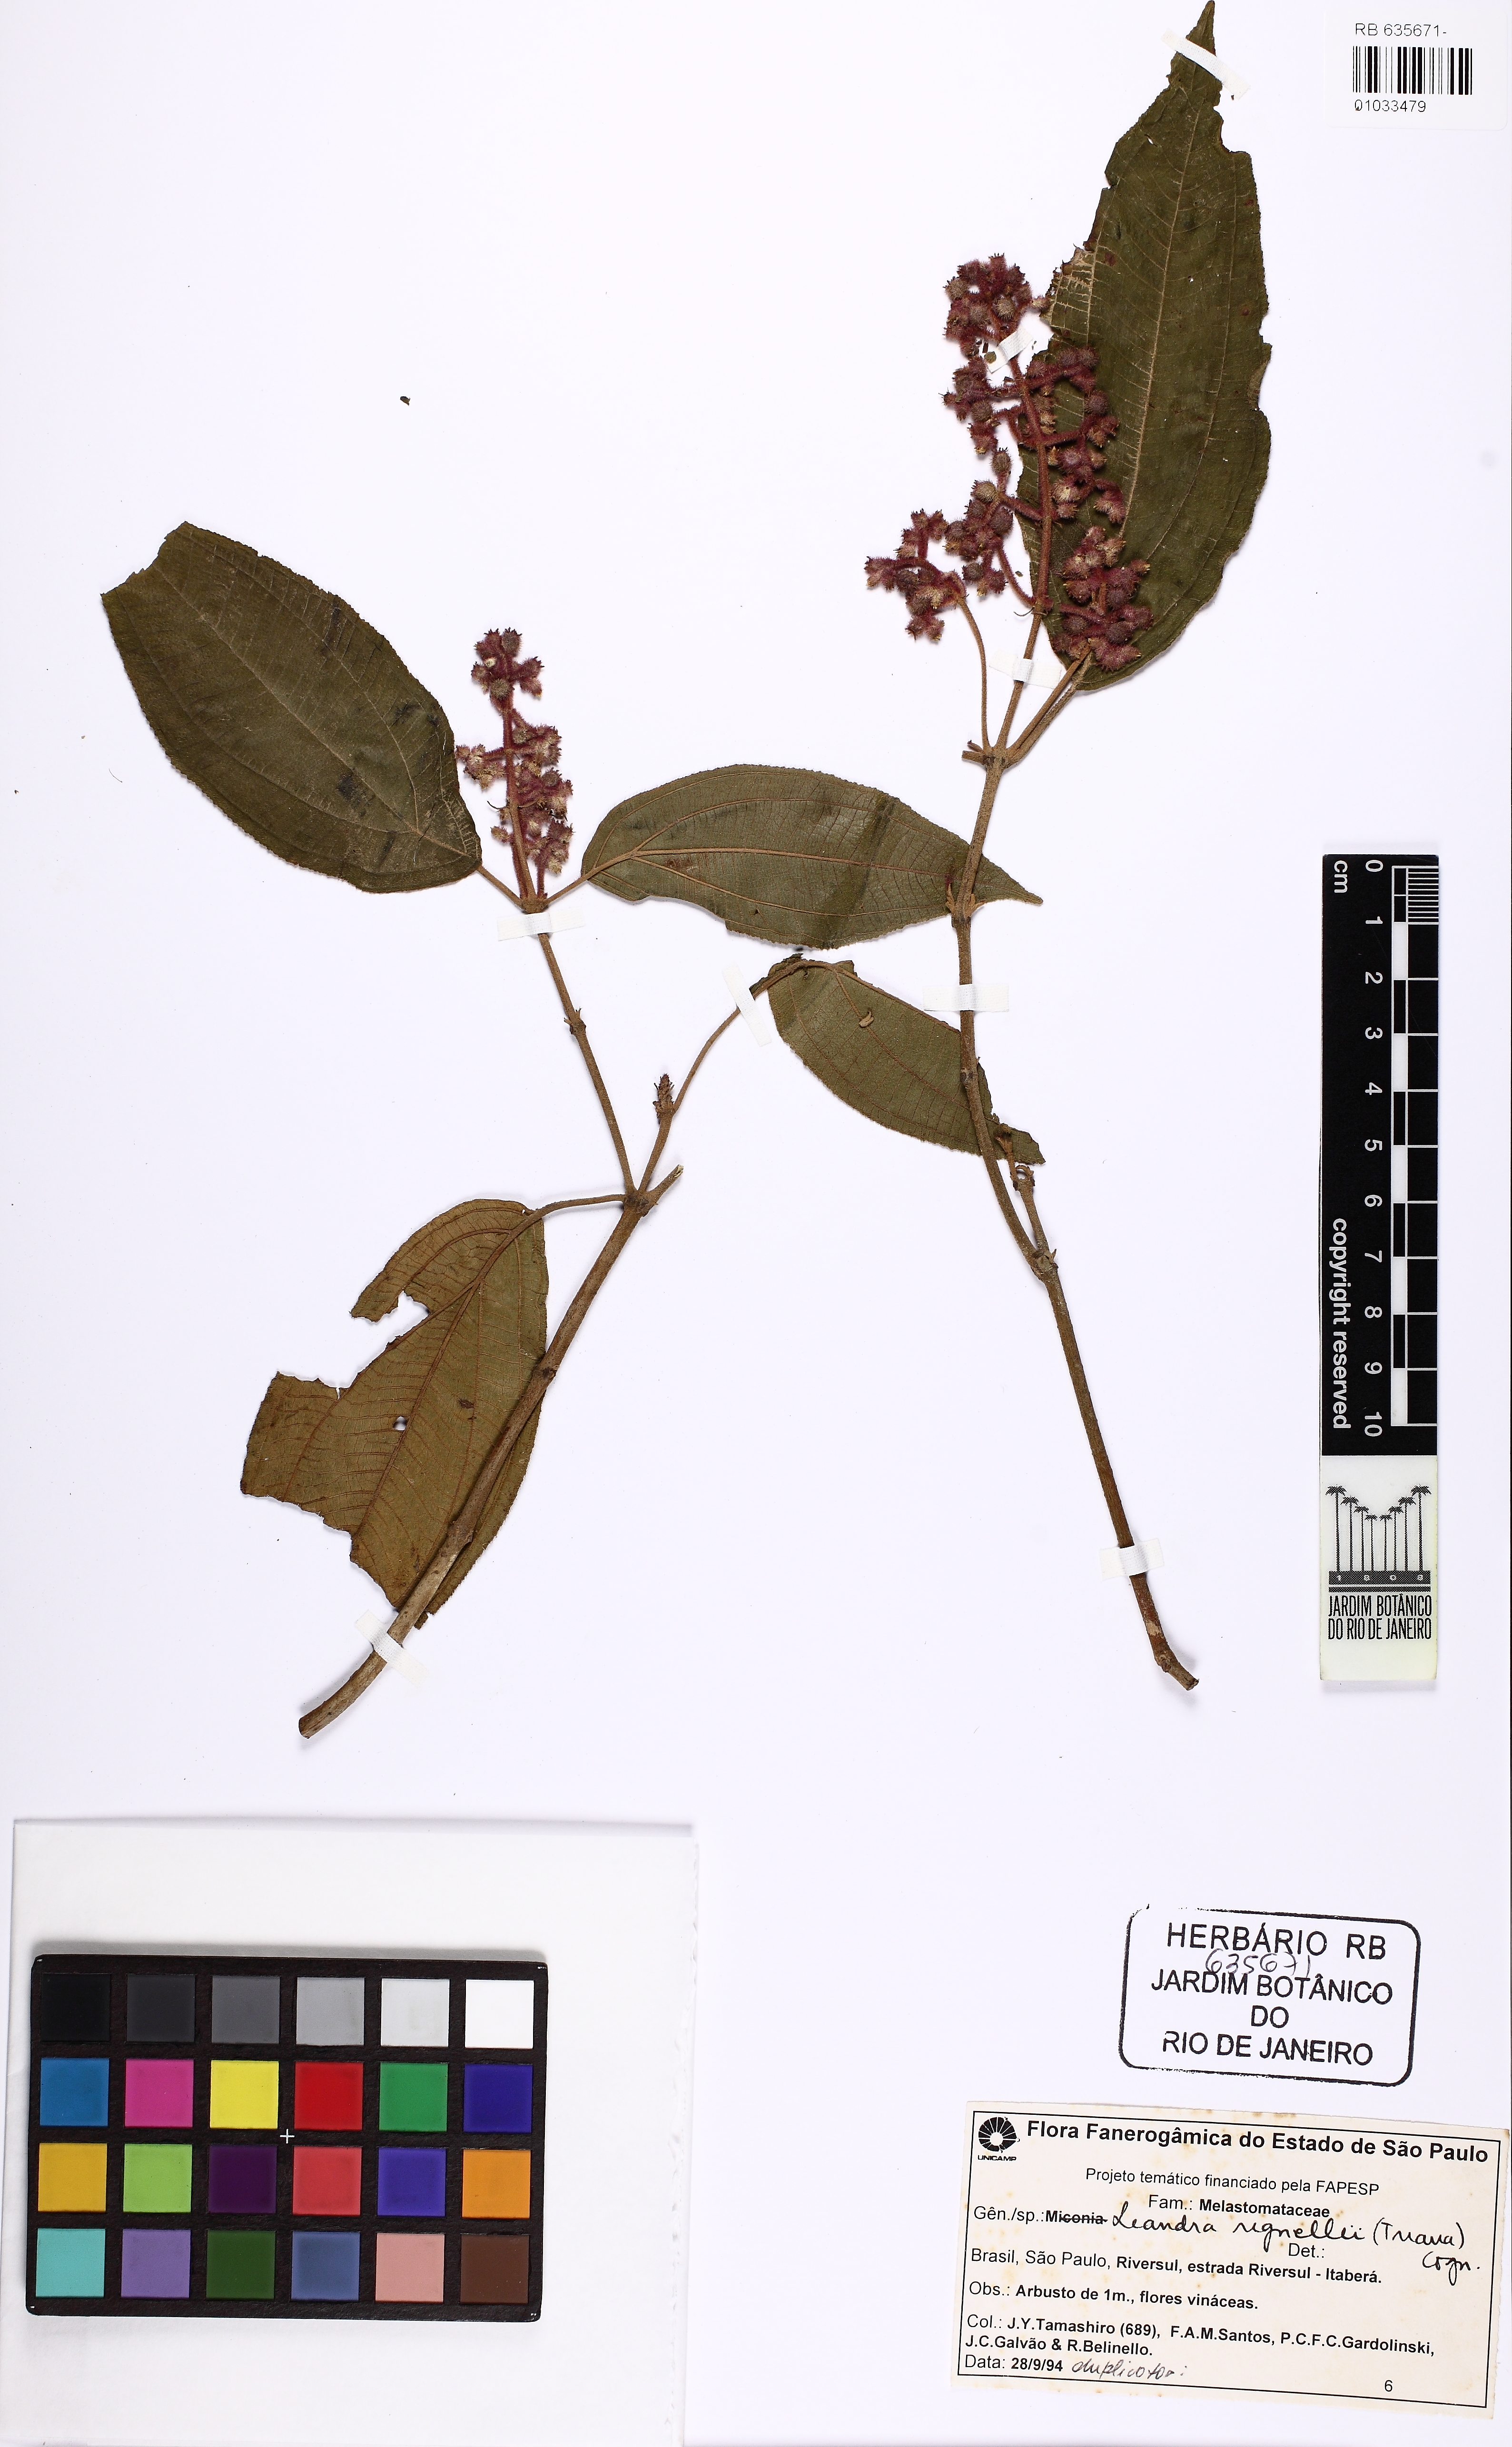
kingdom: Plantae
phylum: Tracheophyta
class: Magnoliopsida
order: Myrtales
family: Melastomataceae
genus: Miconia
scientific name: Miconia alterninervia
